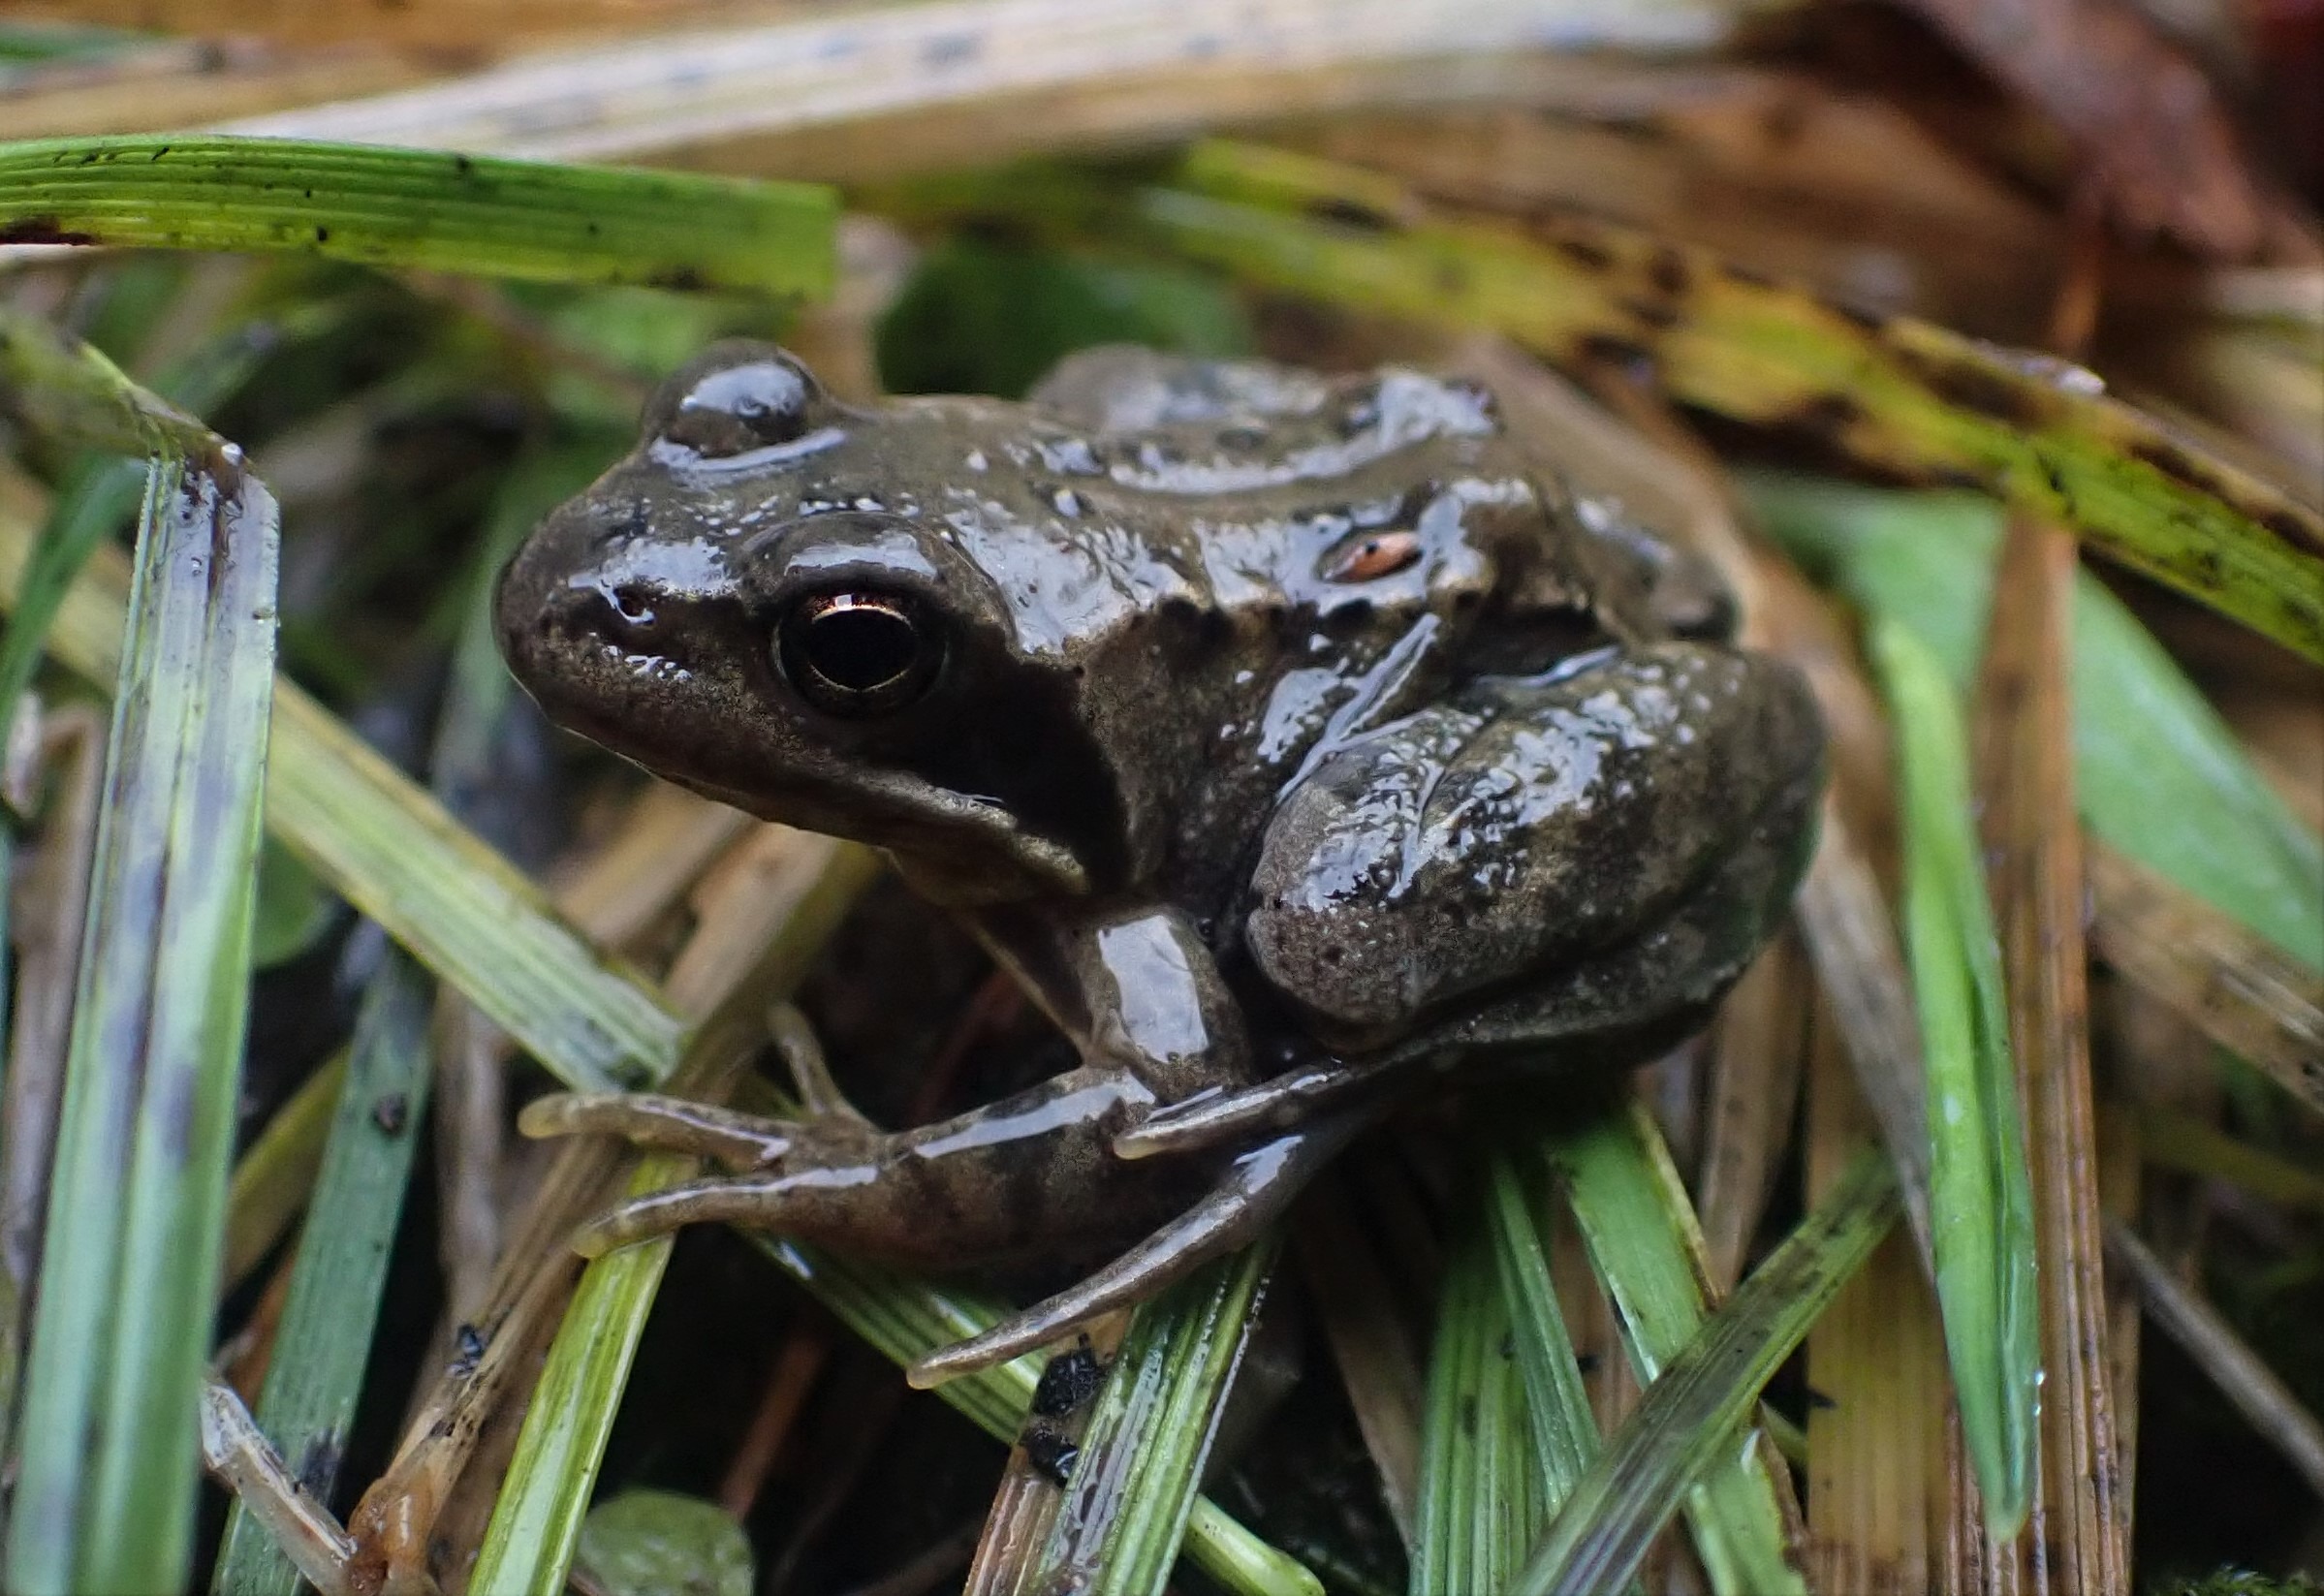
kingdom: Animalia
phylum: Chordata
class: Amphibia
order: Anura
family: Ranidae
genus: Rana
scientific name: Rana temporaria
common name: Butsnudet frø
